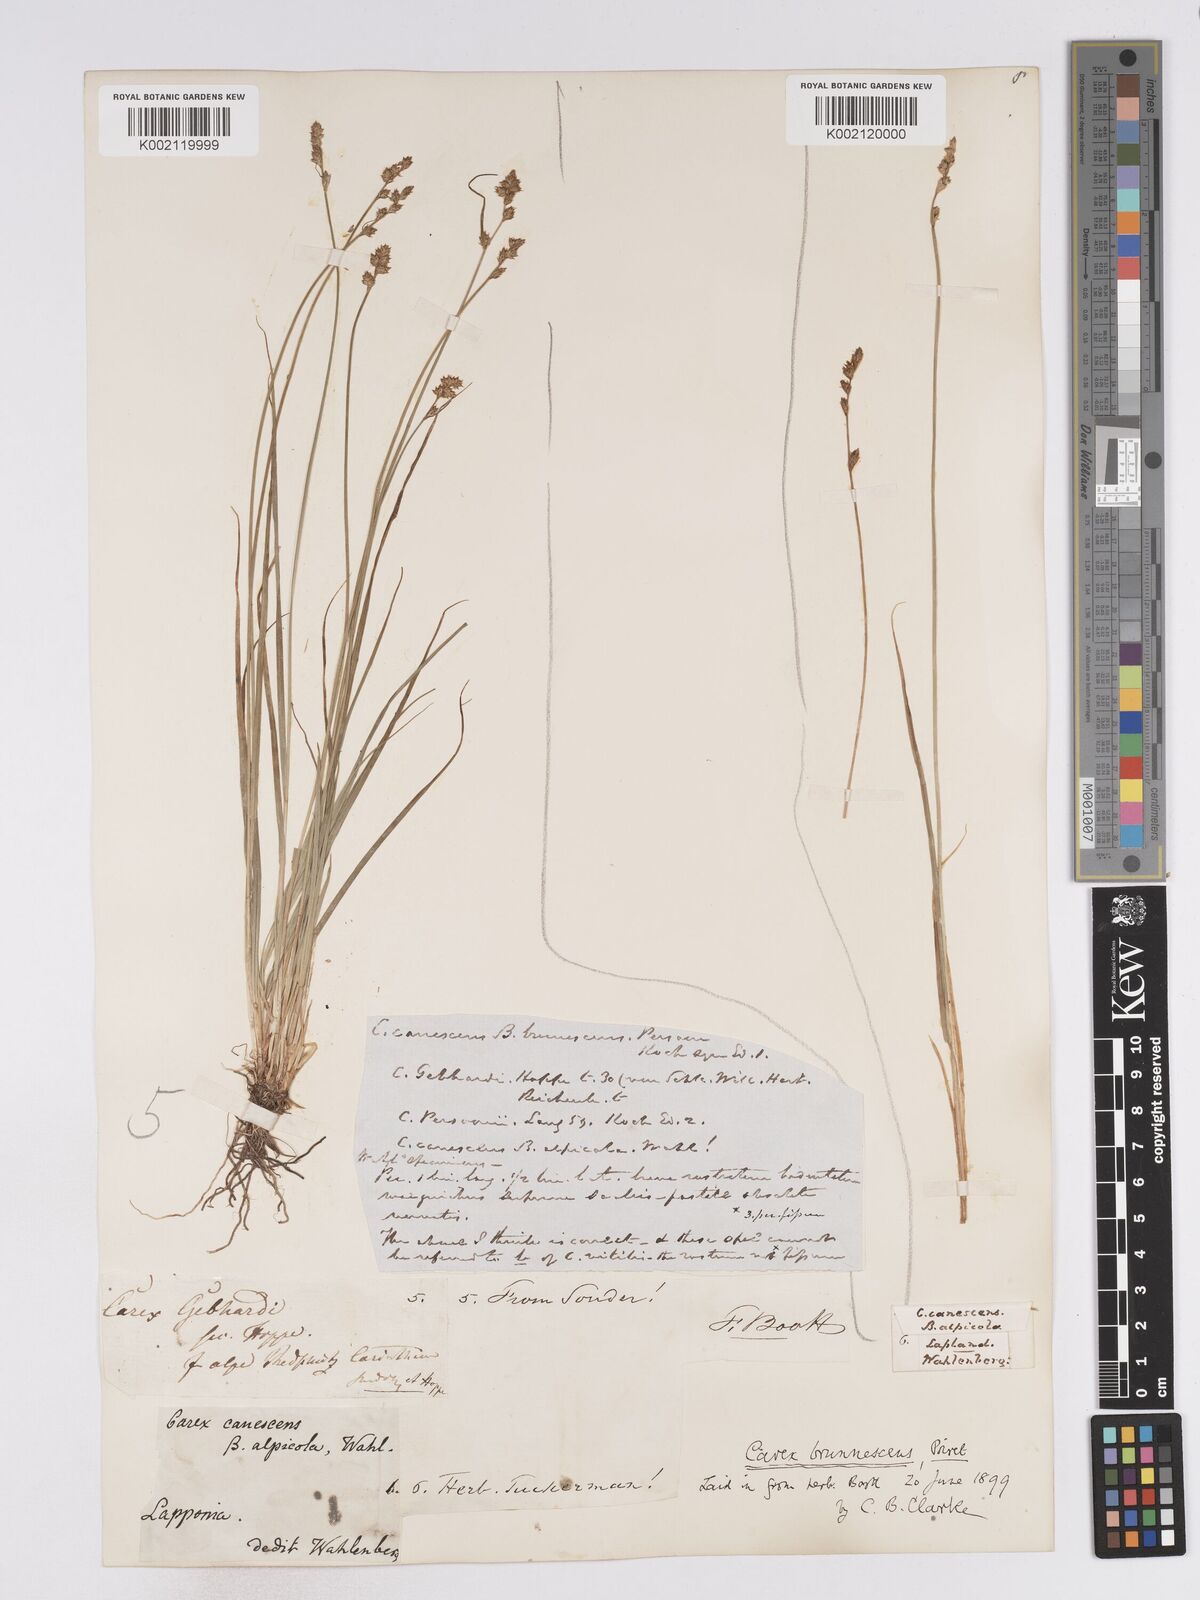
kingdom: Plantae
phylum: Tracheophyta
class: Liliopsida
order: Poales
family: Cyperaceae
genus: Carex
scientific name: Carex brunnescens
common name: Brown sedge
